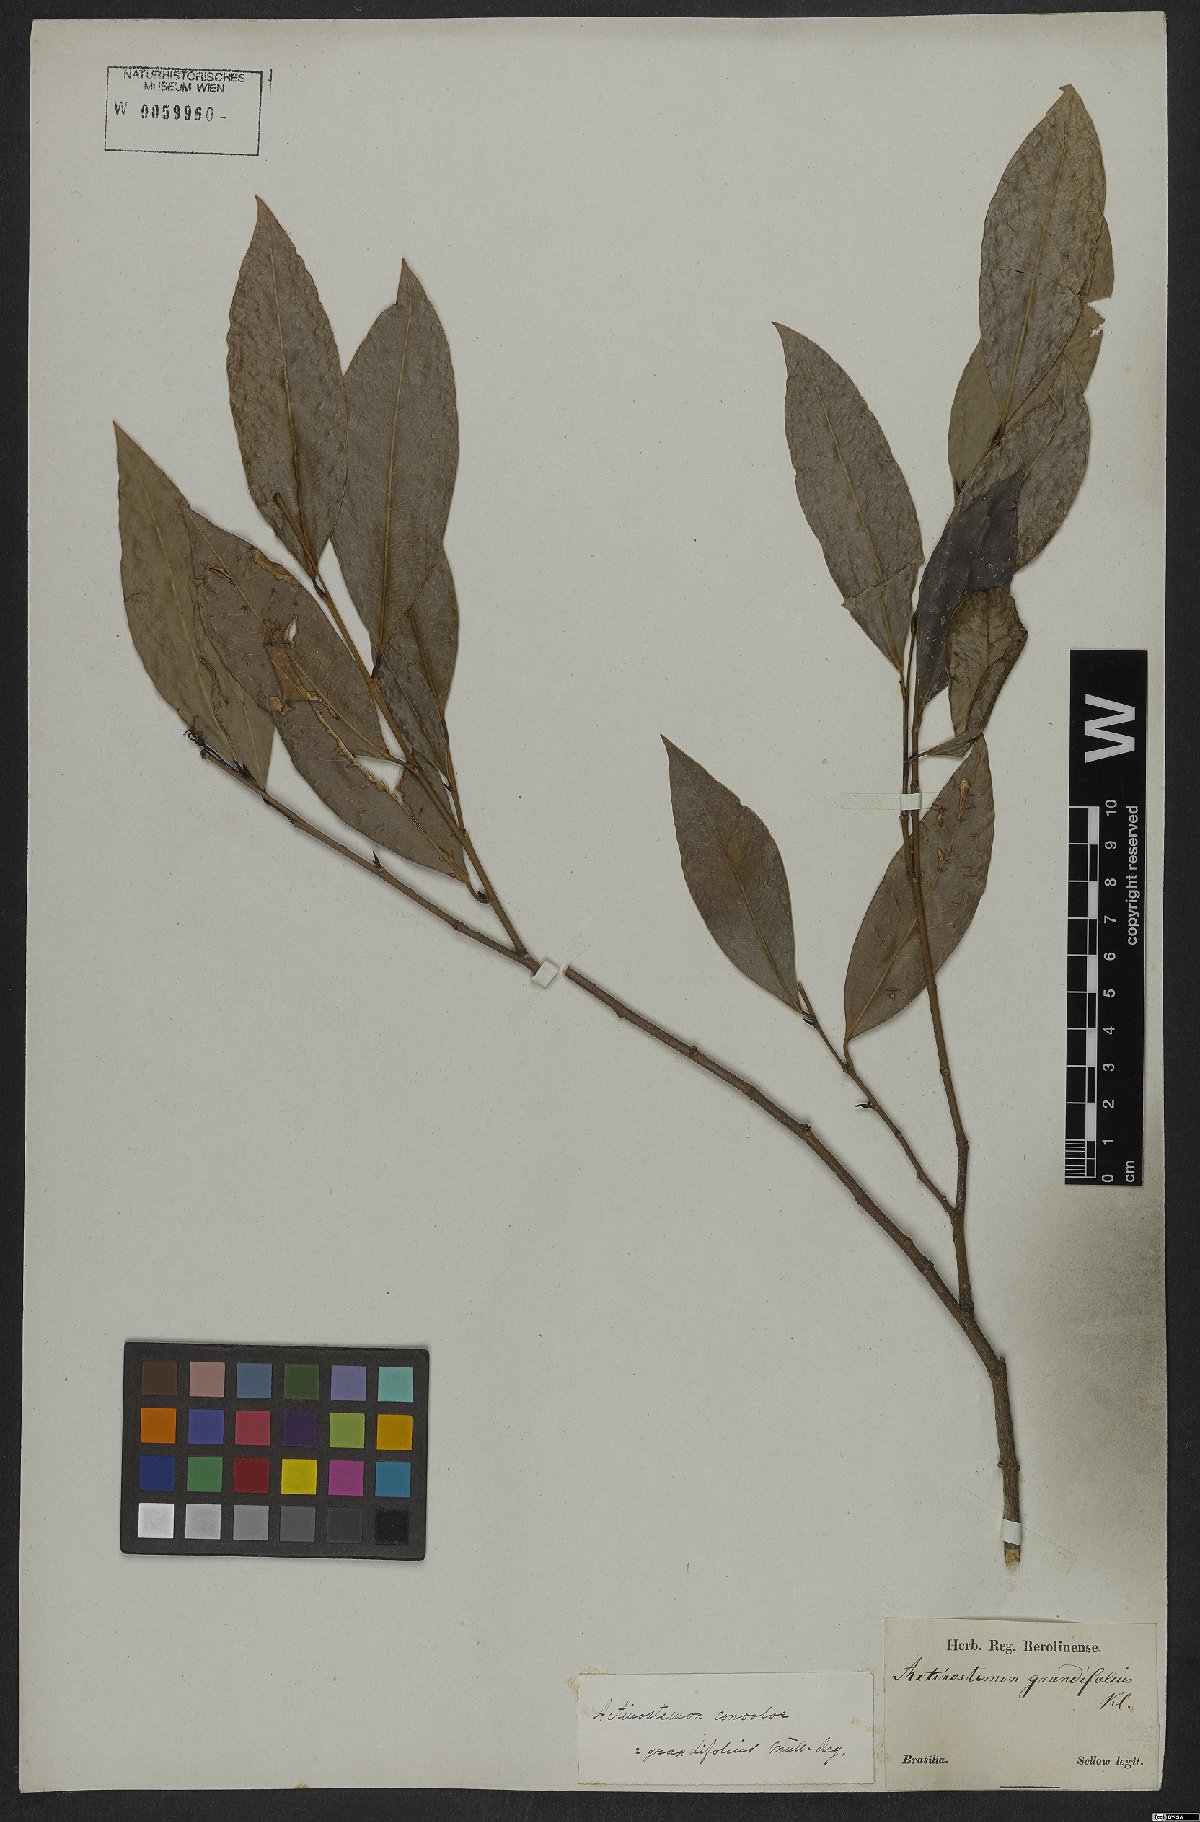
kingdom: Plantae
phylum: Tracheophyta
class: Magnoliopsida
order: Malpighiales
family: Euphorbiaceae
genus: Actinostemon
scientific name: Actinostemon concolor
